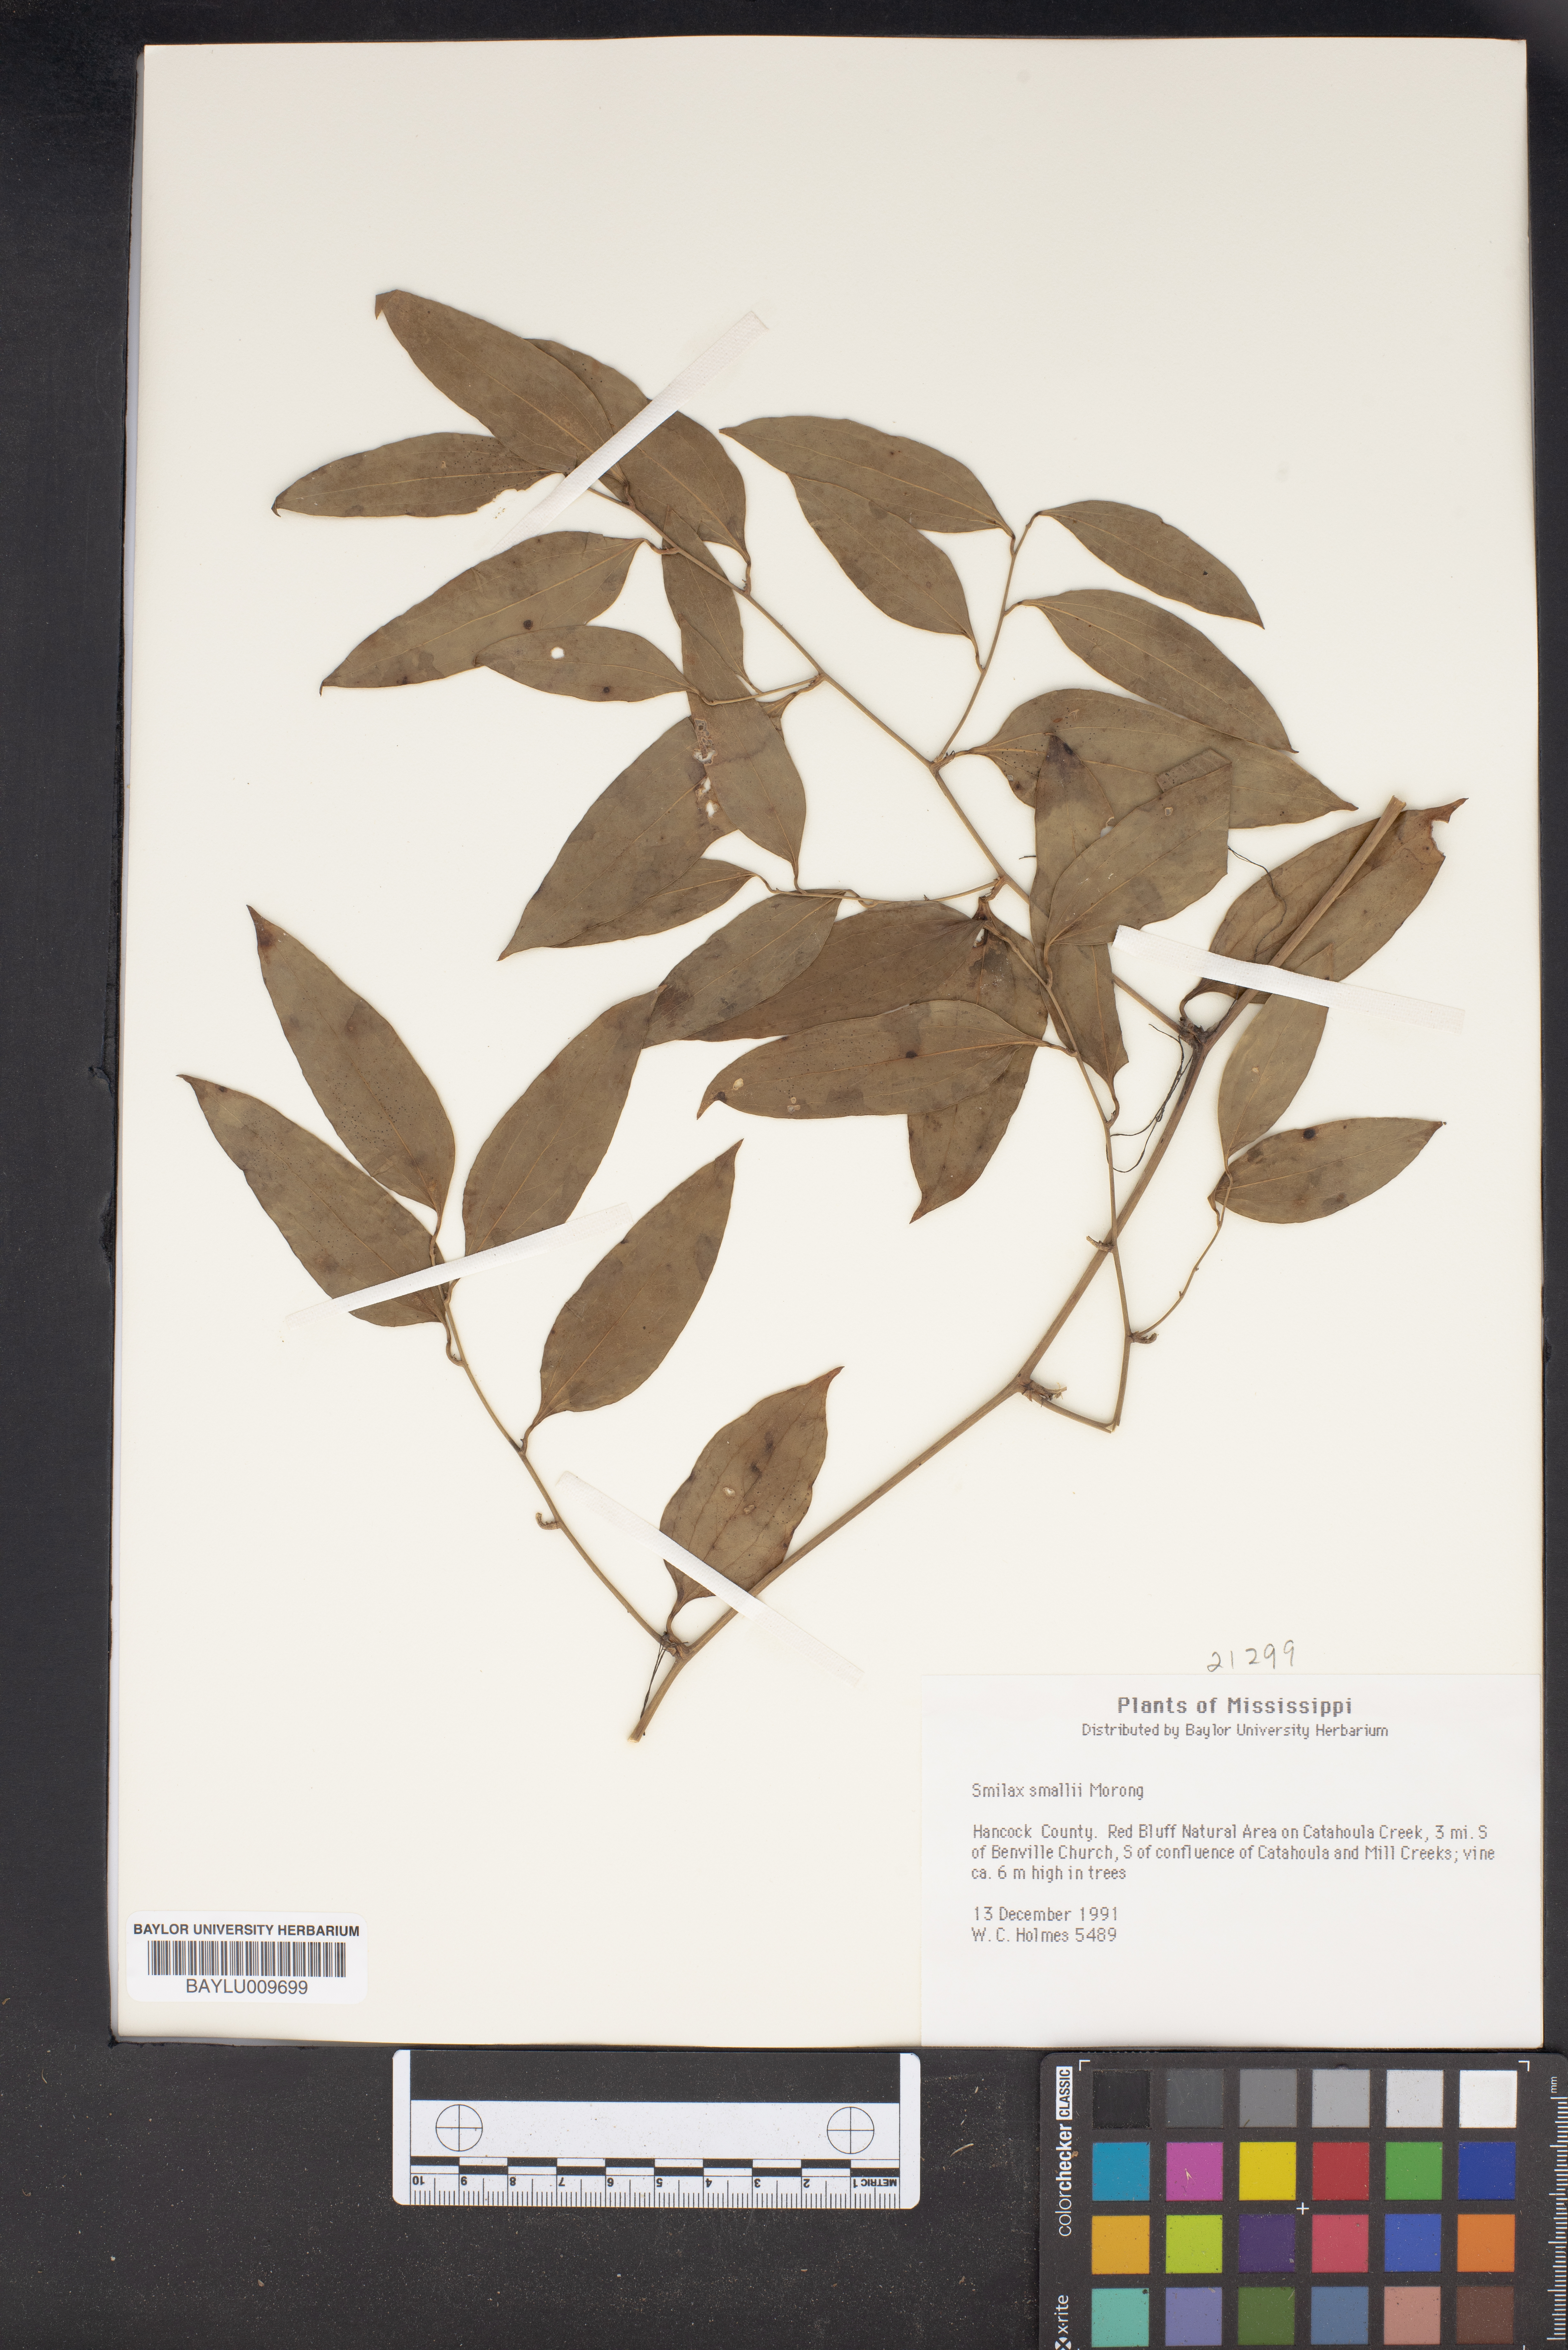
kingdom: Plantae
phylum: Tracheophyta
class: Liliopsida
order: Liliales
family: Smilacaceae
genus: Smilax
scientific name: Smilax maritima
